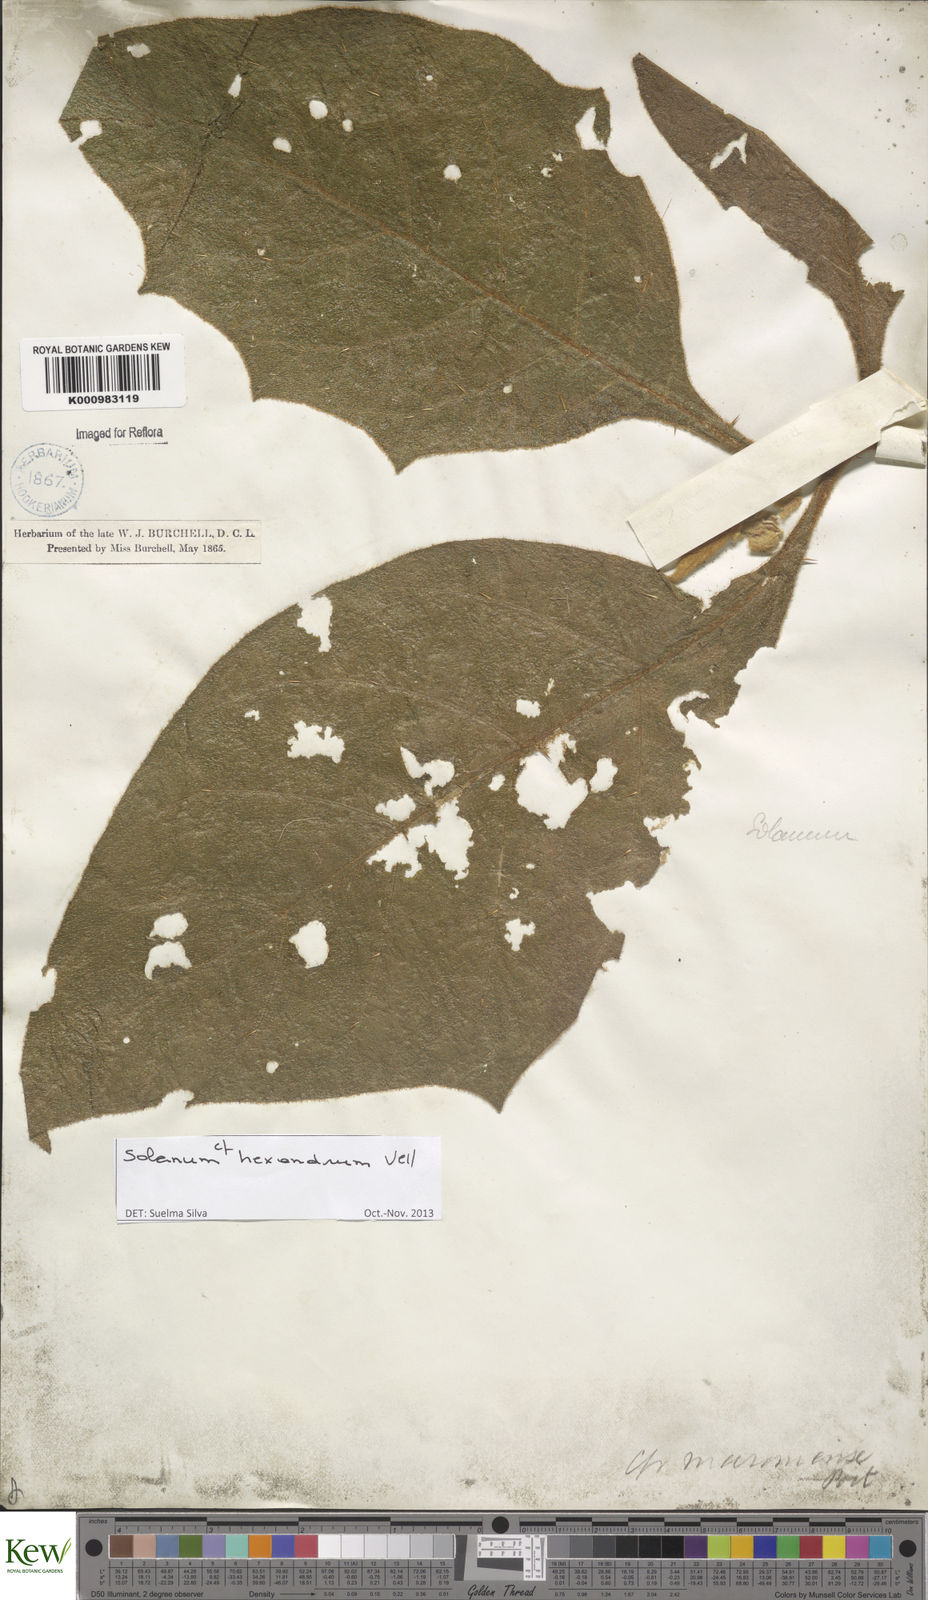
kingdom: Plantae
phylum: Tracheophyta
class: Magnoliopsida
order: Solanales
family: Solanaceae
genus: Solanum
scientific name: Solanum hexandrum
